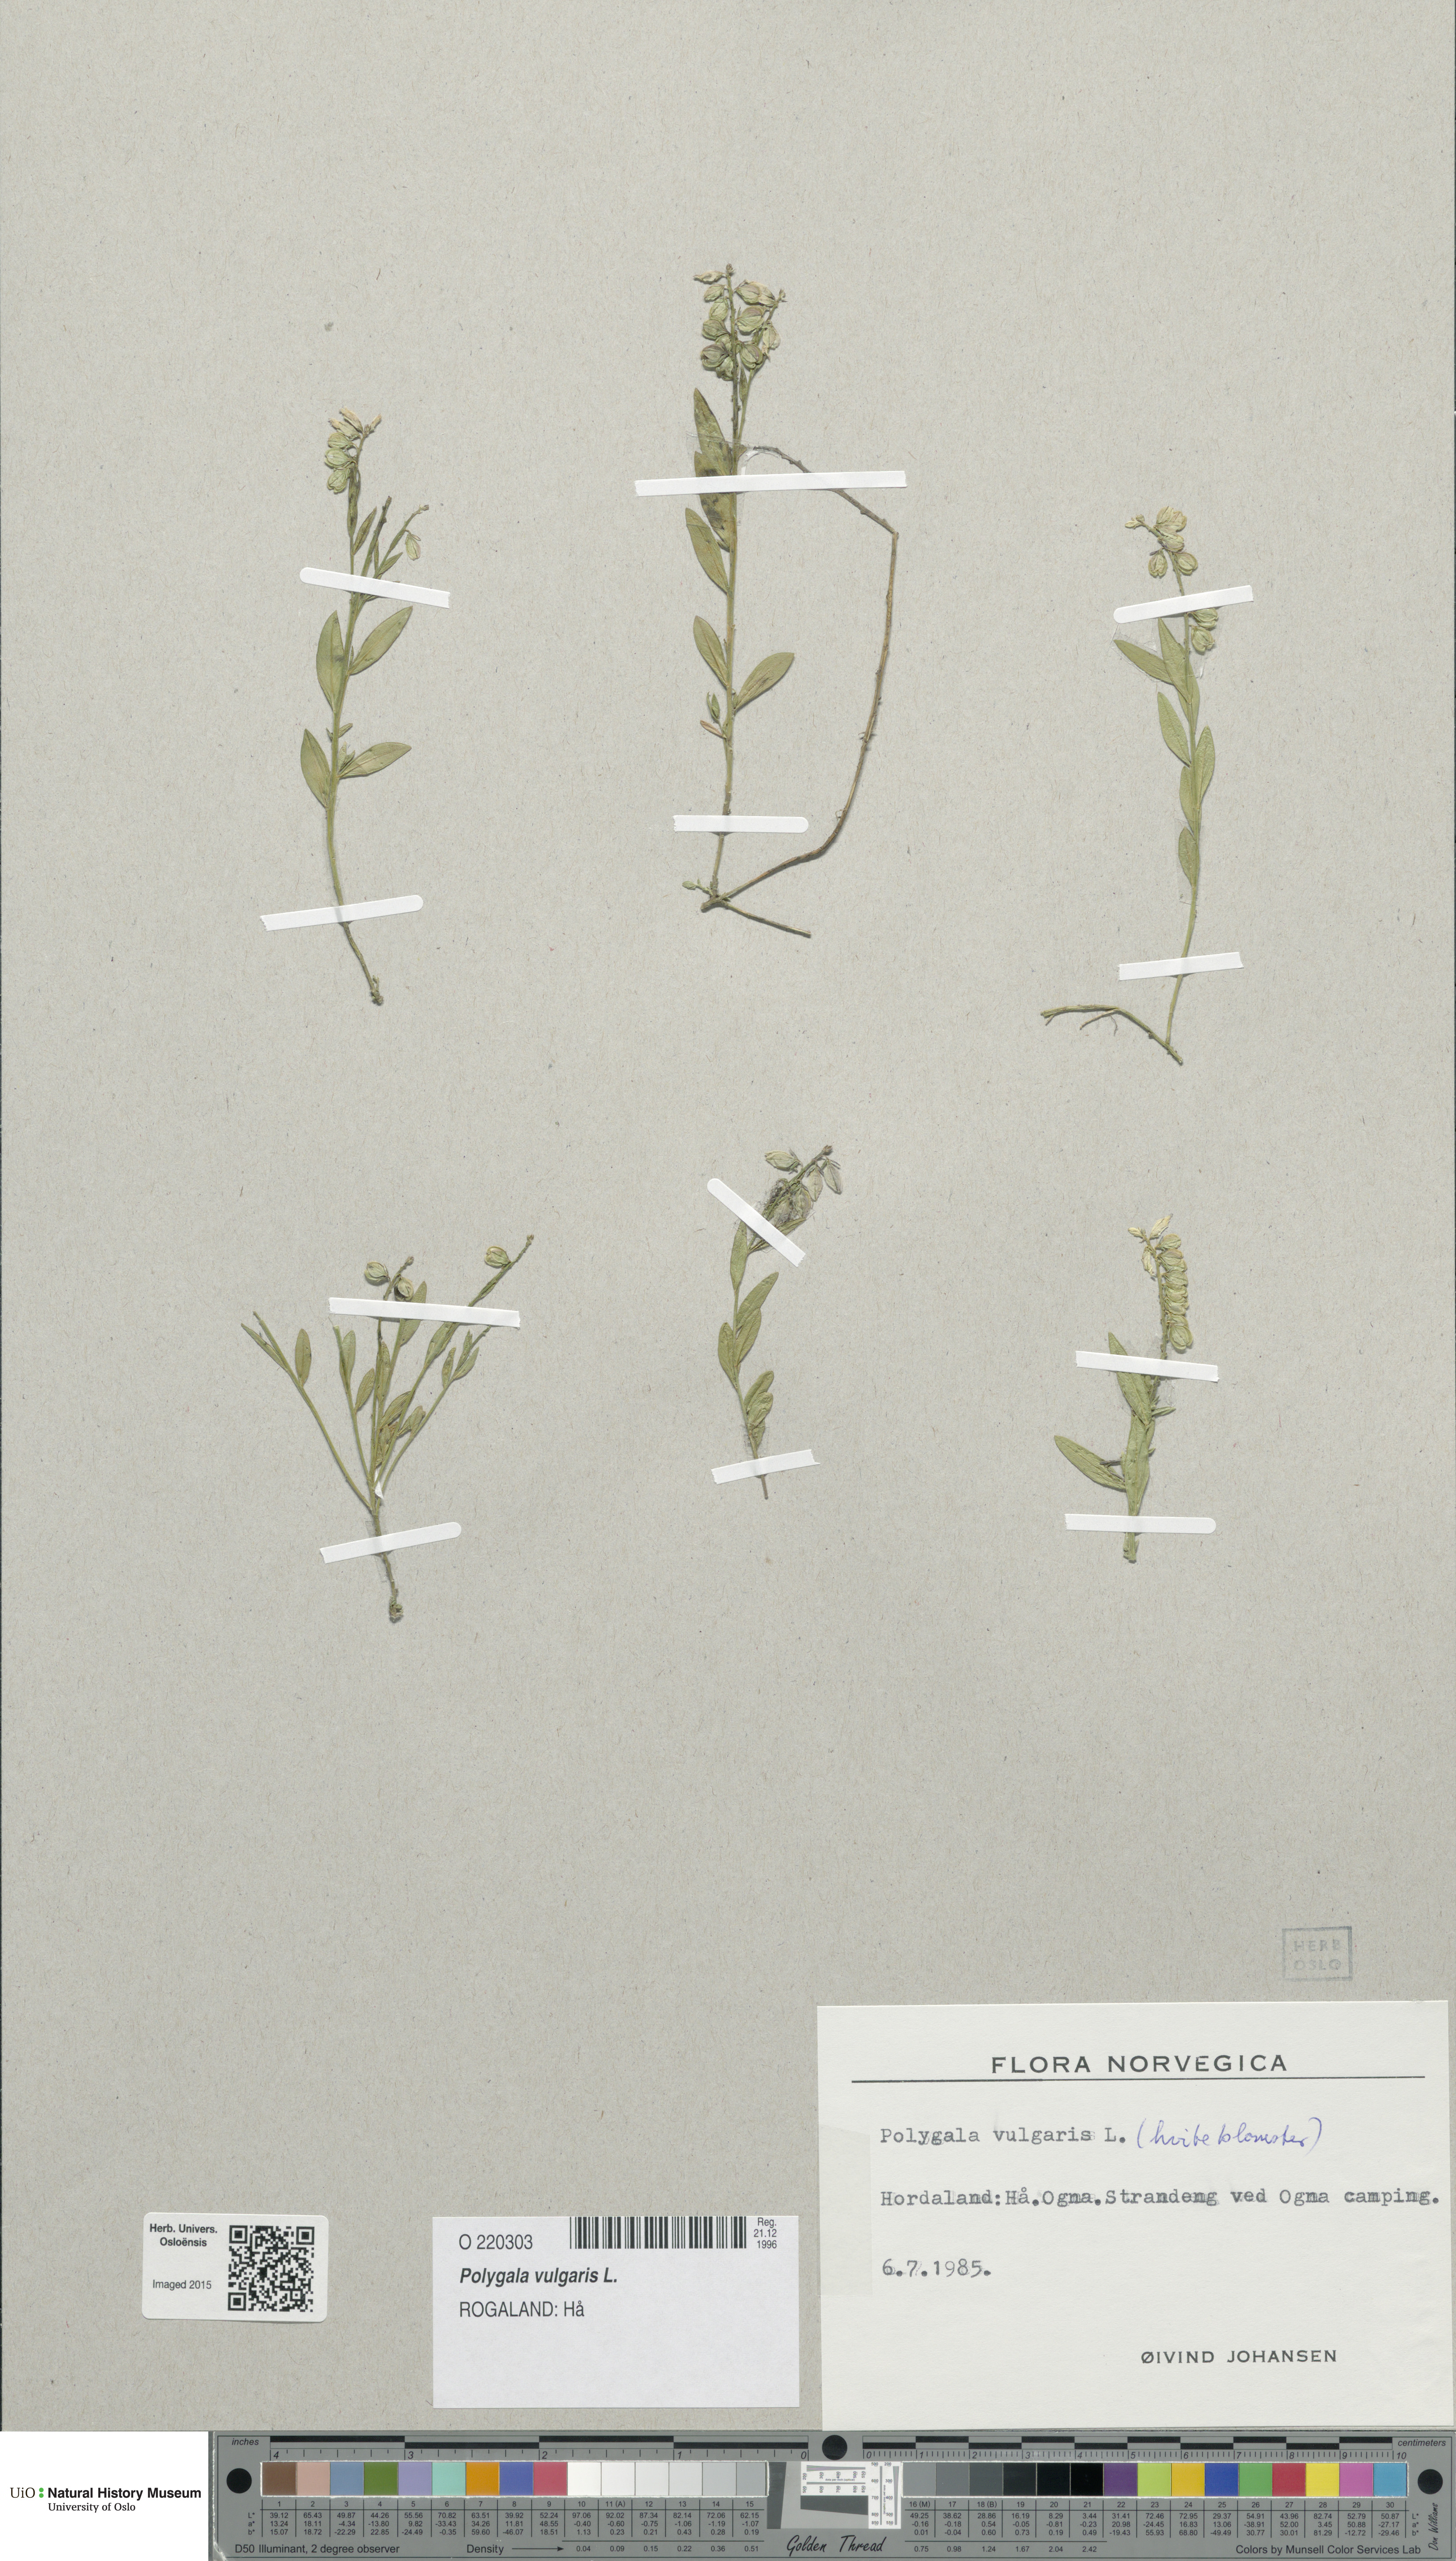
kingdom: Plantae
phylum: Tracheophyta
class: Magnoliopsida
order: Fabales
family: Polygalaceae
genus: Polygala
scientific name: Polygala vulgaris
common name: Common milkwort
